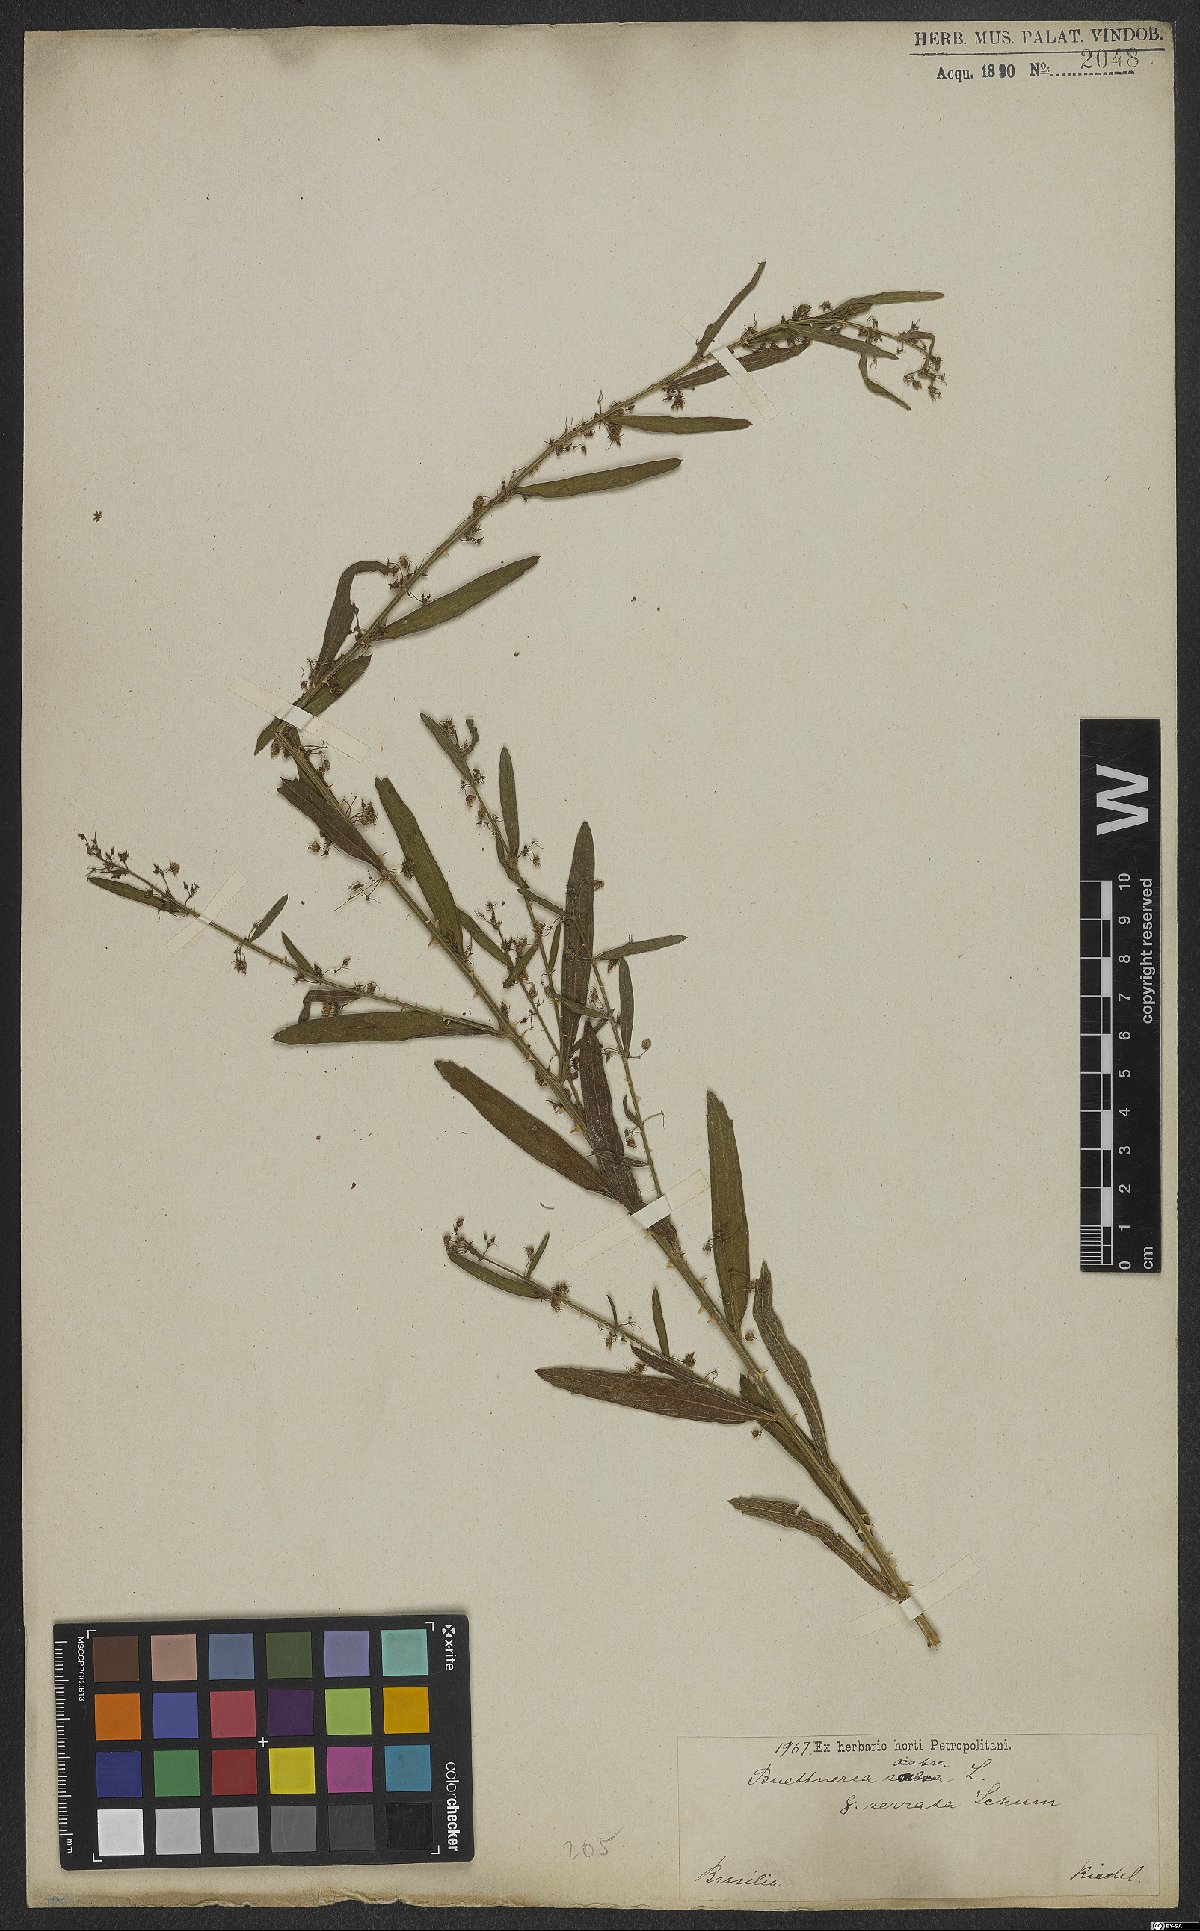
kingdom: Plantae
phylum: Tracheophyta
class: Magnoliopsida
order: Malvales
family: Malvaceae
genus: Byttneria
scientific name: Byttneria scabra
